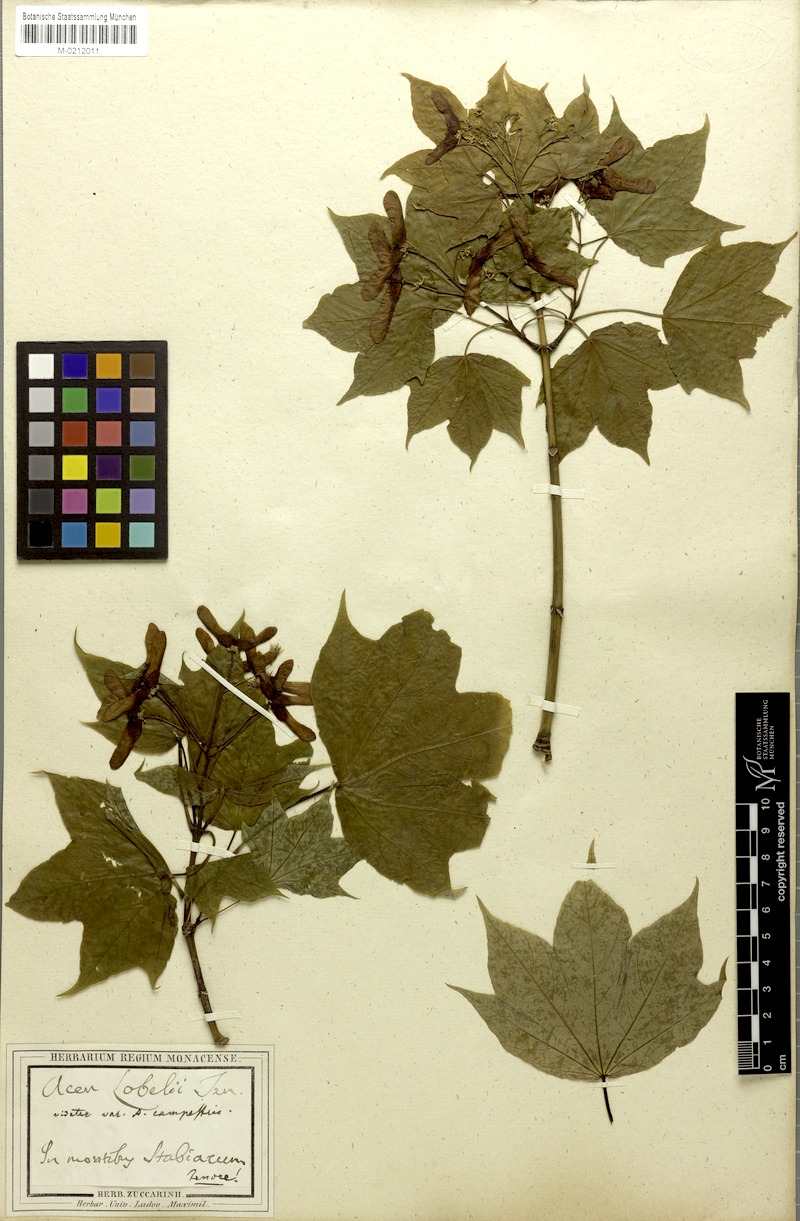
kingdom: Plantae
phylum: Tracheophyta
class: Magnoliopsida
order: Sapindales
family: Sapindaceae
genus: Acer
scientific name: Acer lobelii
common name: Lobel's maple
